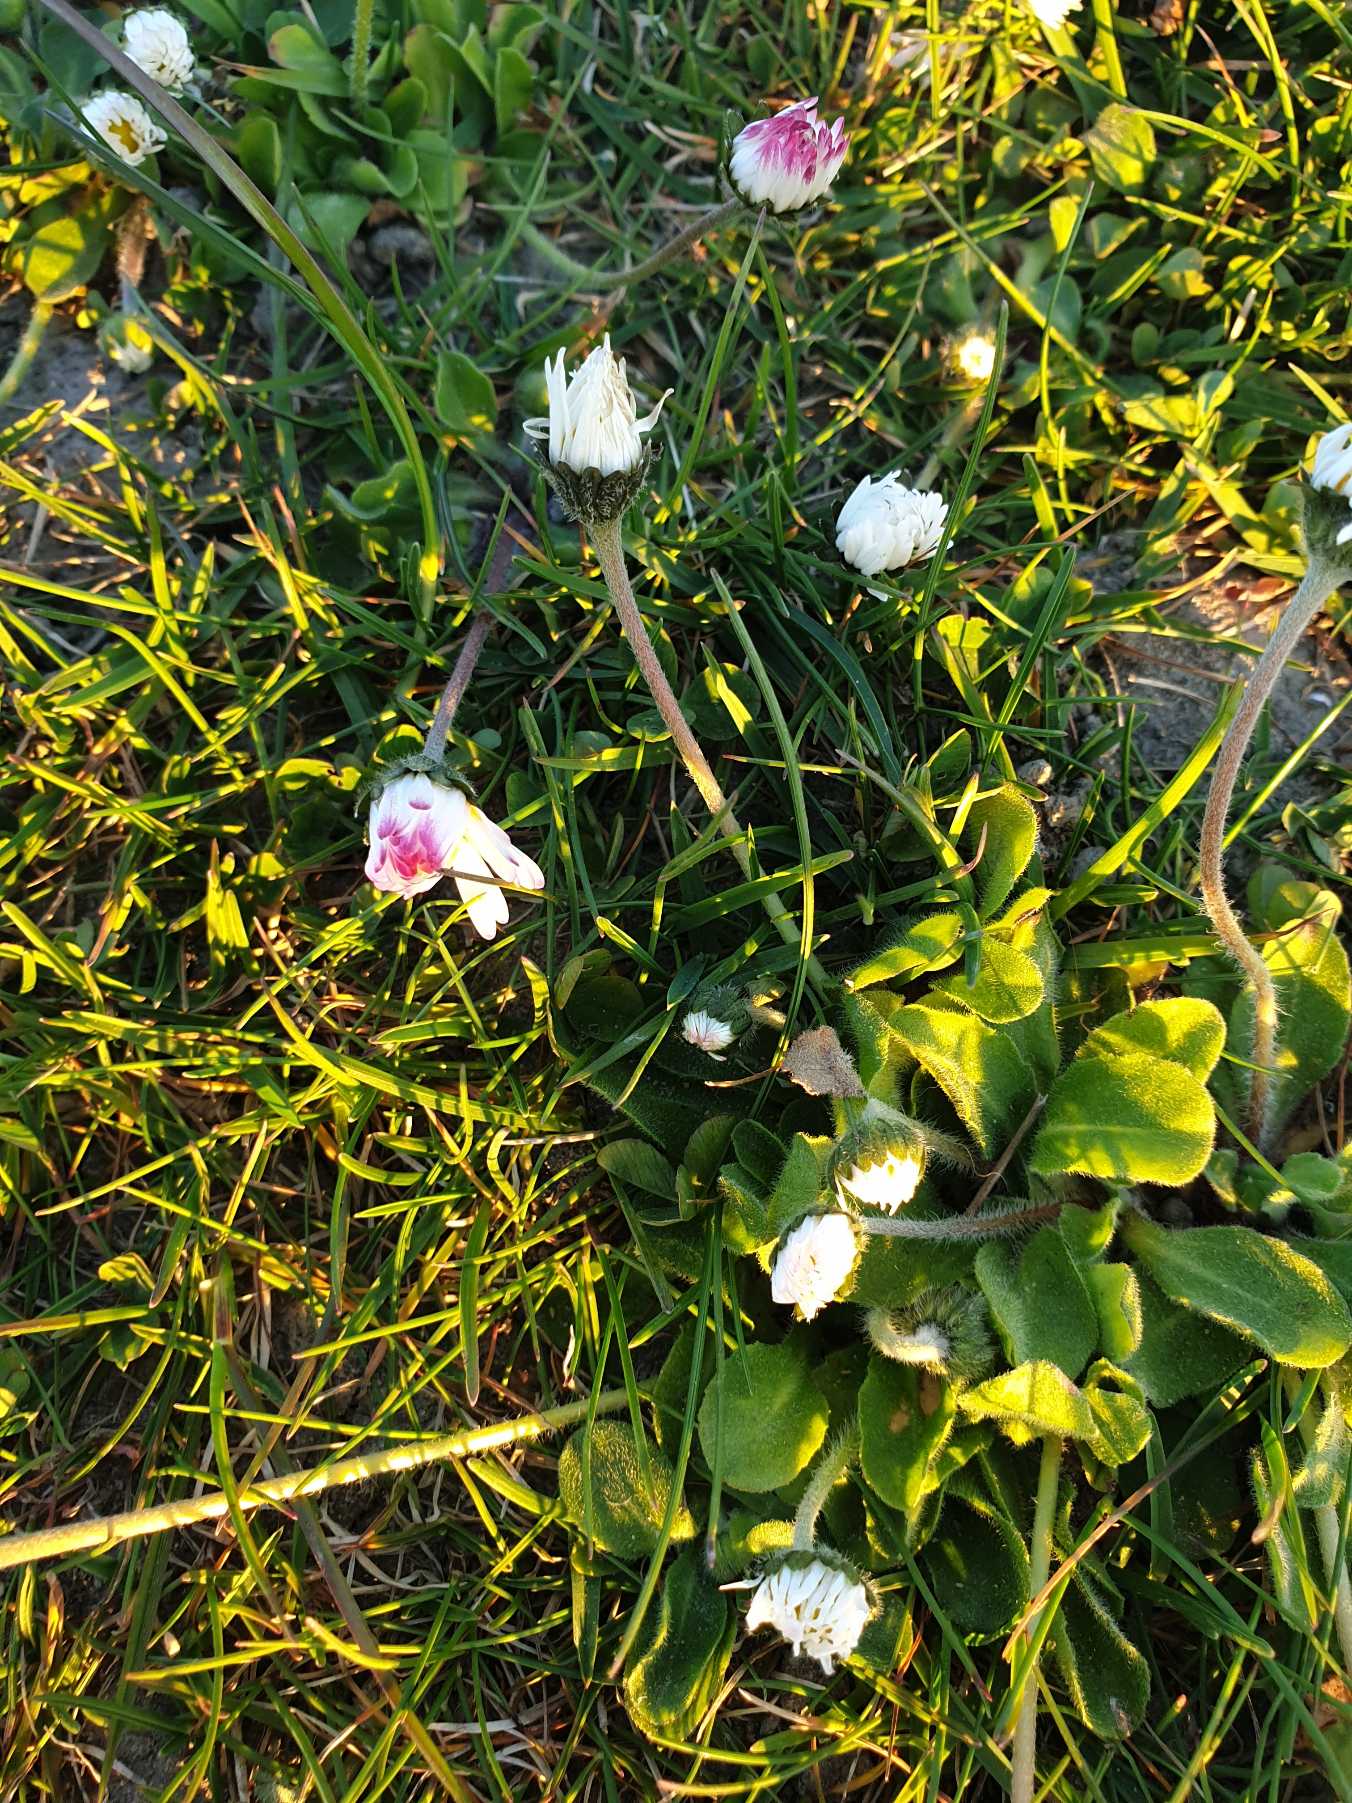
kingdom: Plantae
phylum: Tracheophyta
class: Magnoliopsida
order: Asterales
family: Asteraceae
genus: Bellis
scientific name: Bellis perennis
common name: Tusindfryd
